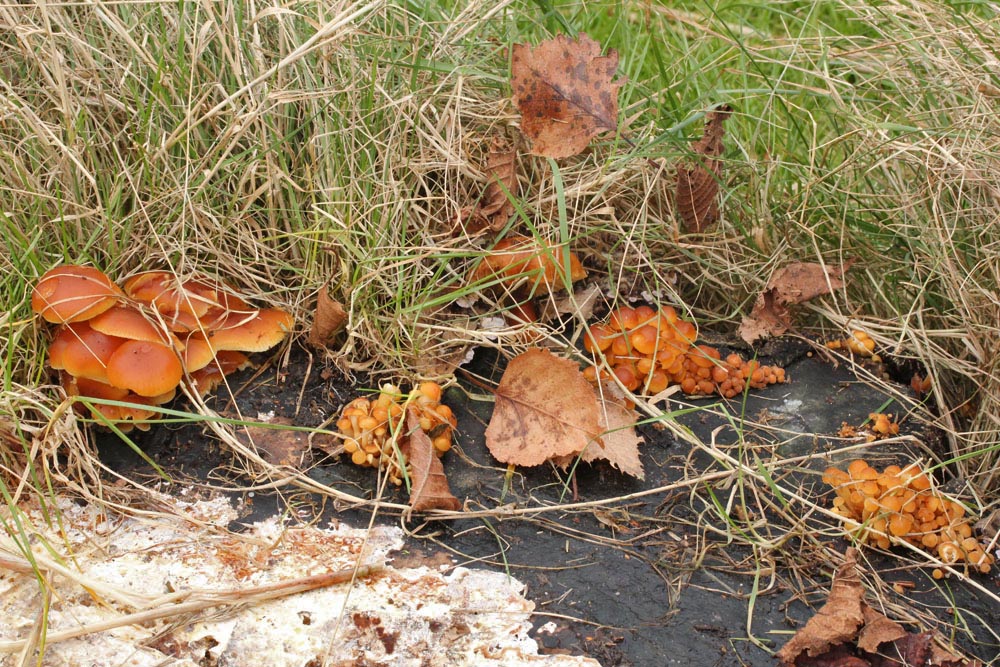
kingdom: Fungi
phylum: Basidiomycota
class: Agaricomycetes
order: Agaricales
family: Physalacriaceae
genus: Flammulina
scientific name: Flammulina velutipes
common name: gul fløjlsfod
